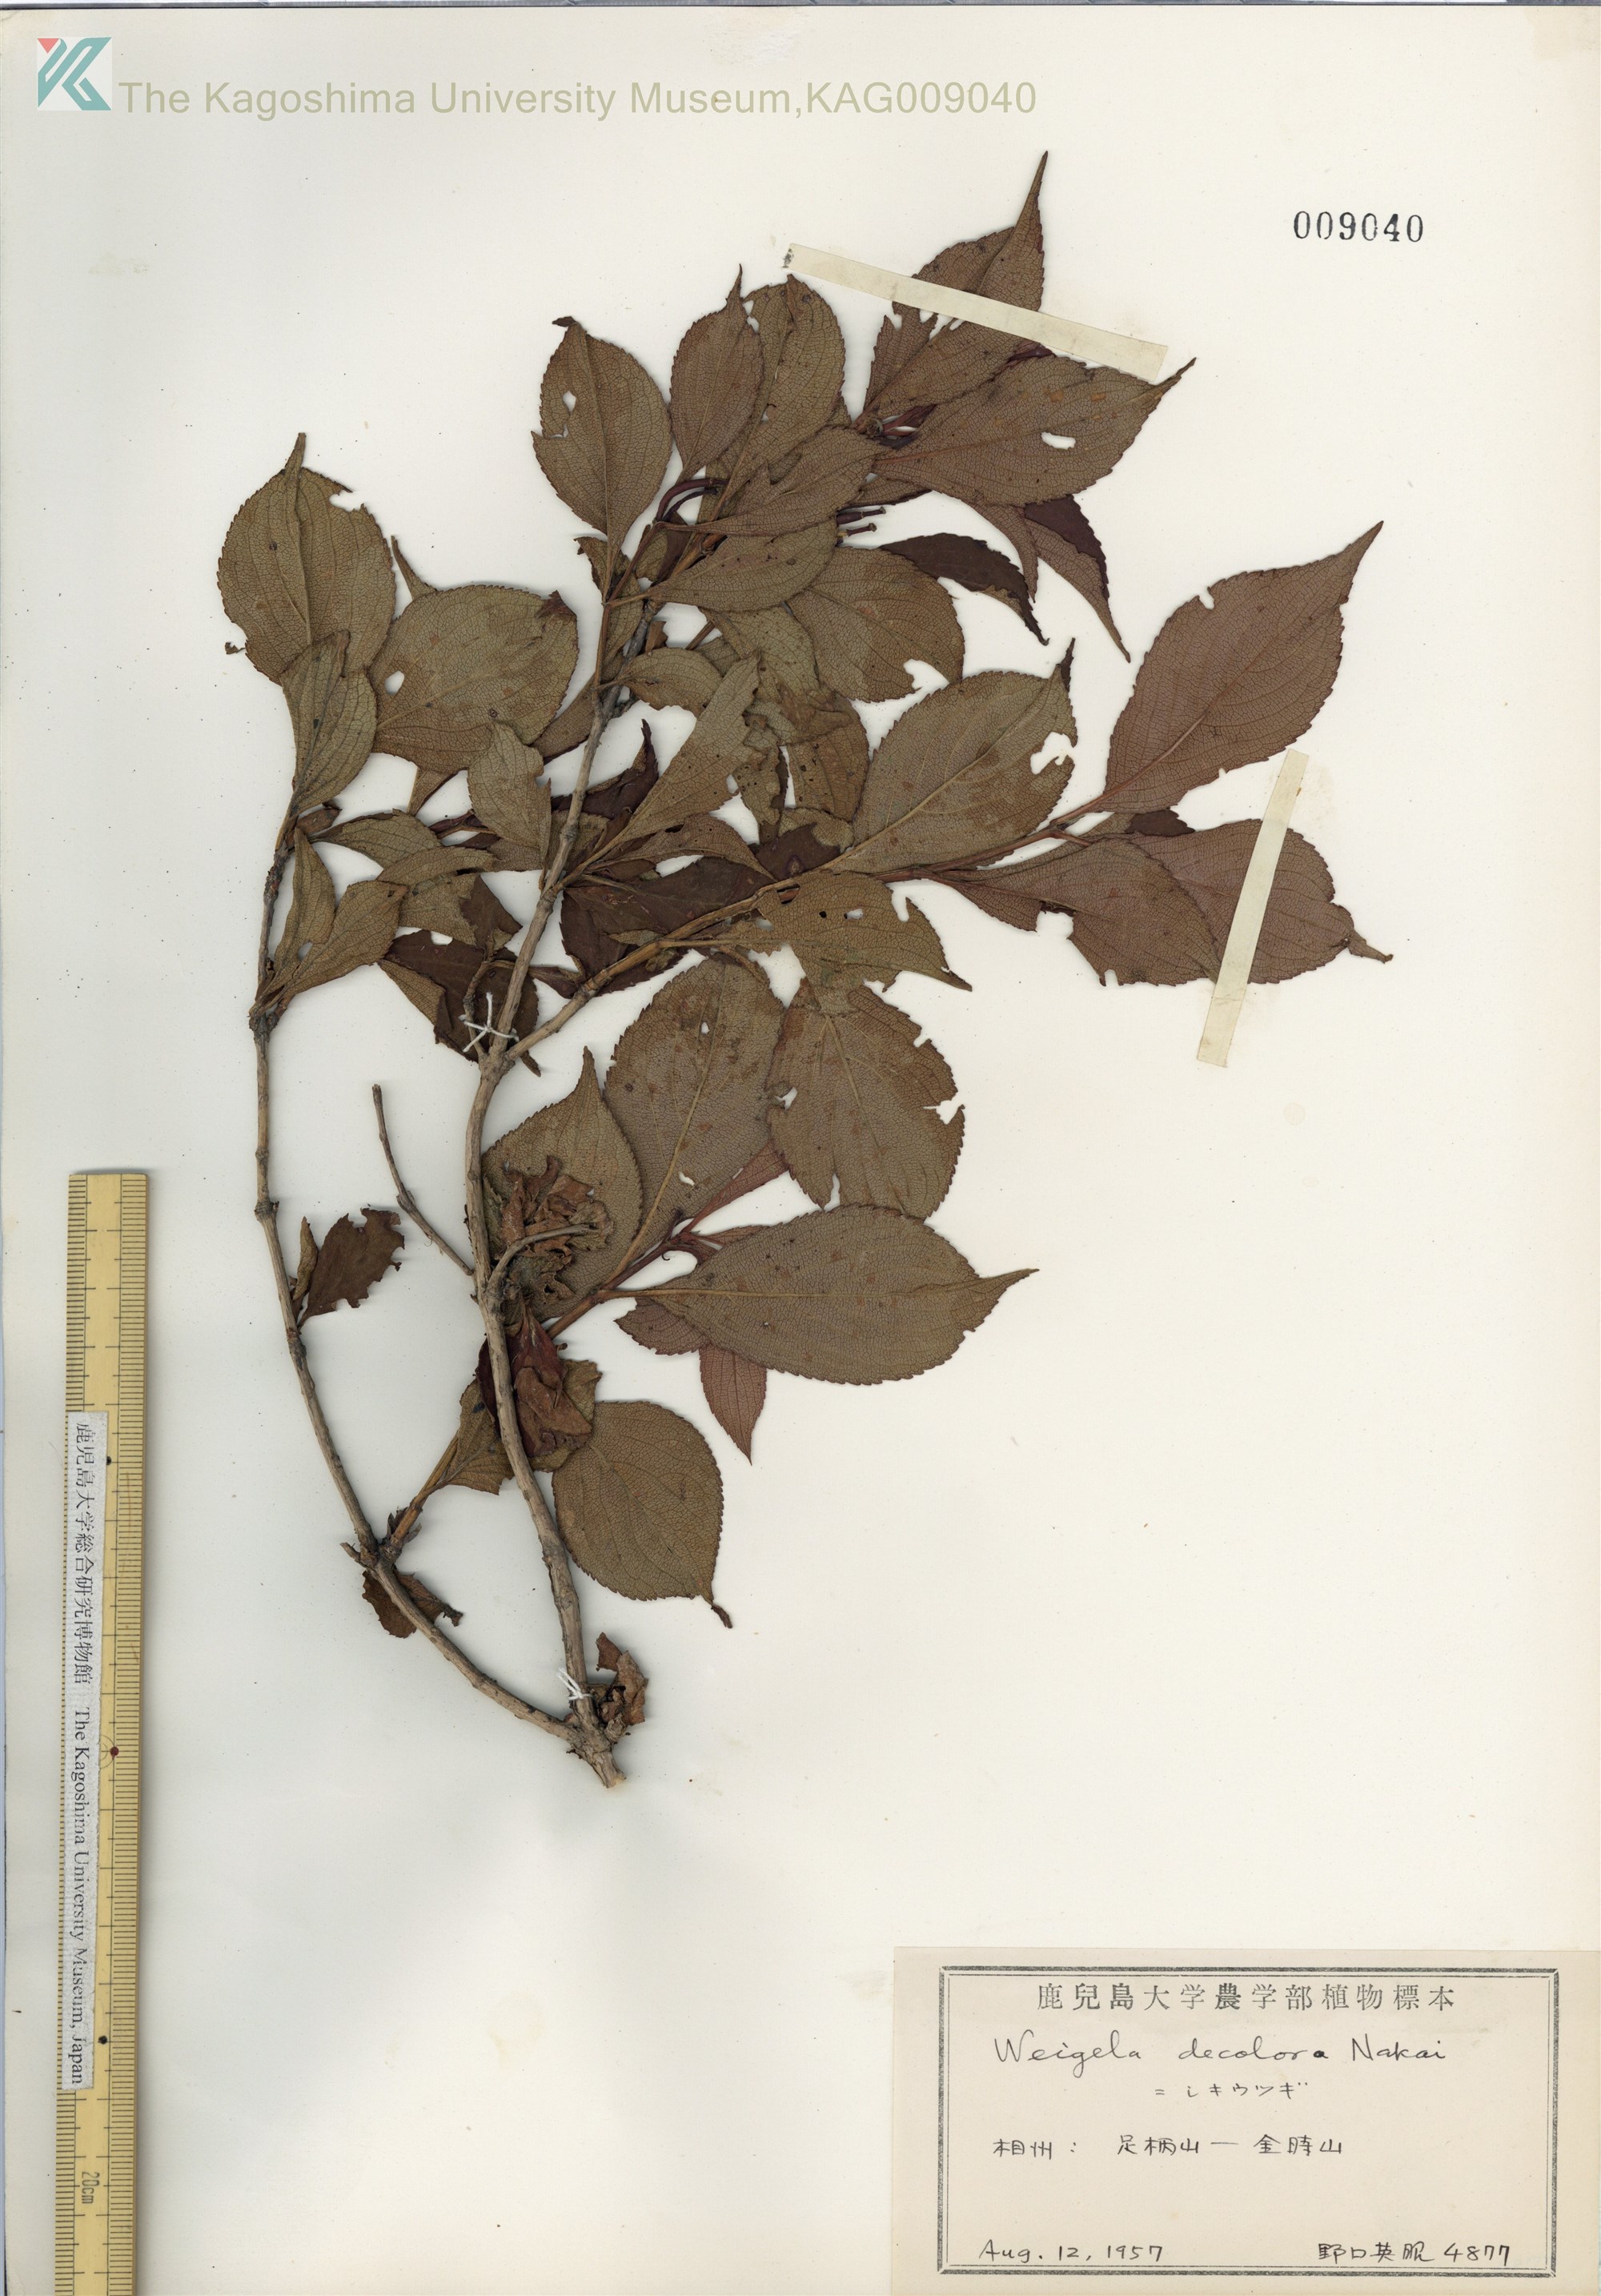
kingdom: Plantae
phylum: Tracheophyta
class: Magnoliopsida
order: Dipsacales
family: Caprifoliaceae
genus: Weigela
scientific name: Weigela decora
